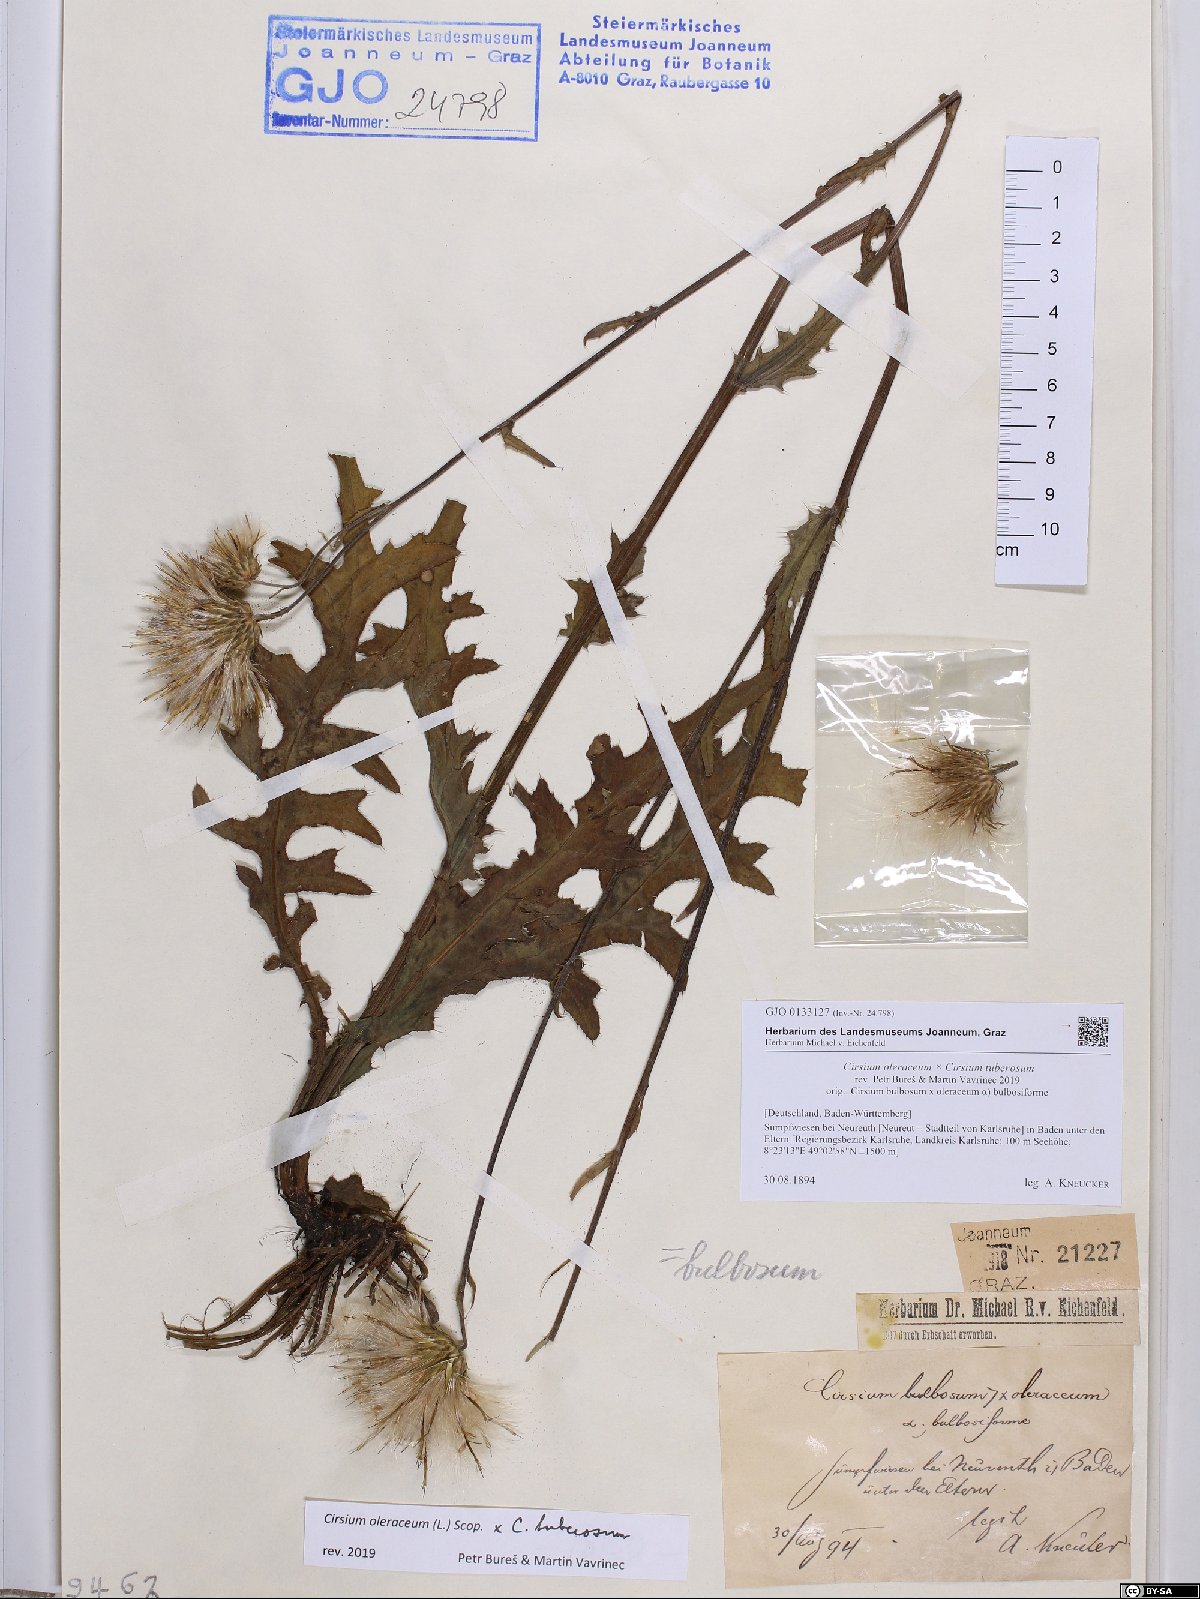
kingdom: Plantae
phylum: Tracheophyta
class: Magnoliopsida
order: Asterales
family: Asteraceae
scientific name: Asteraceae
